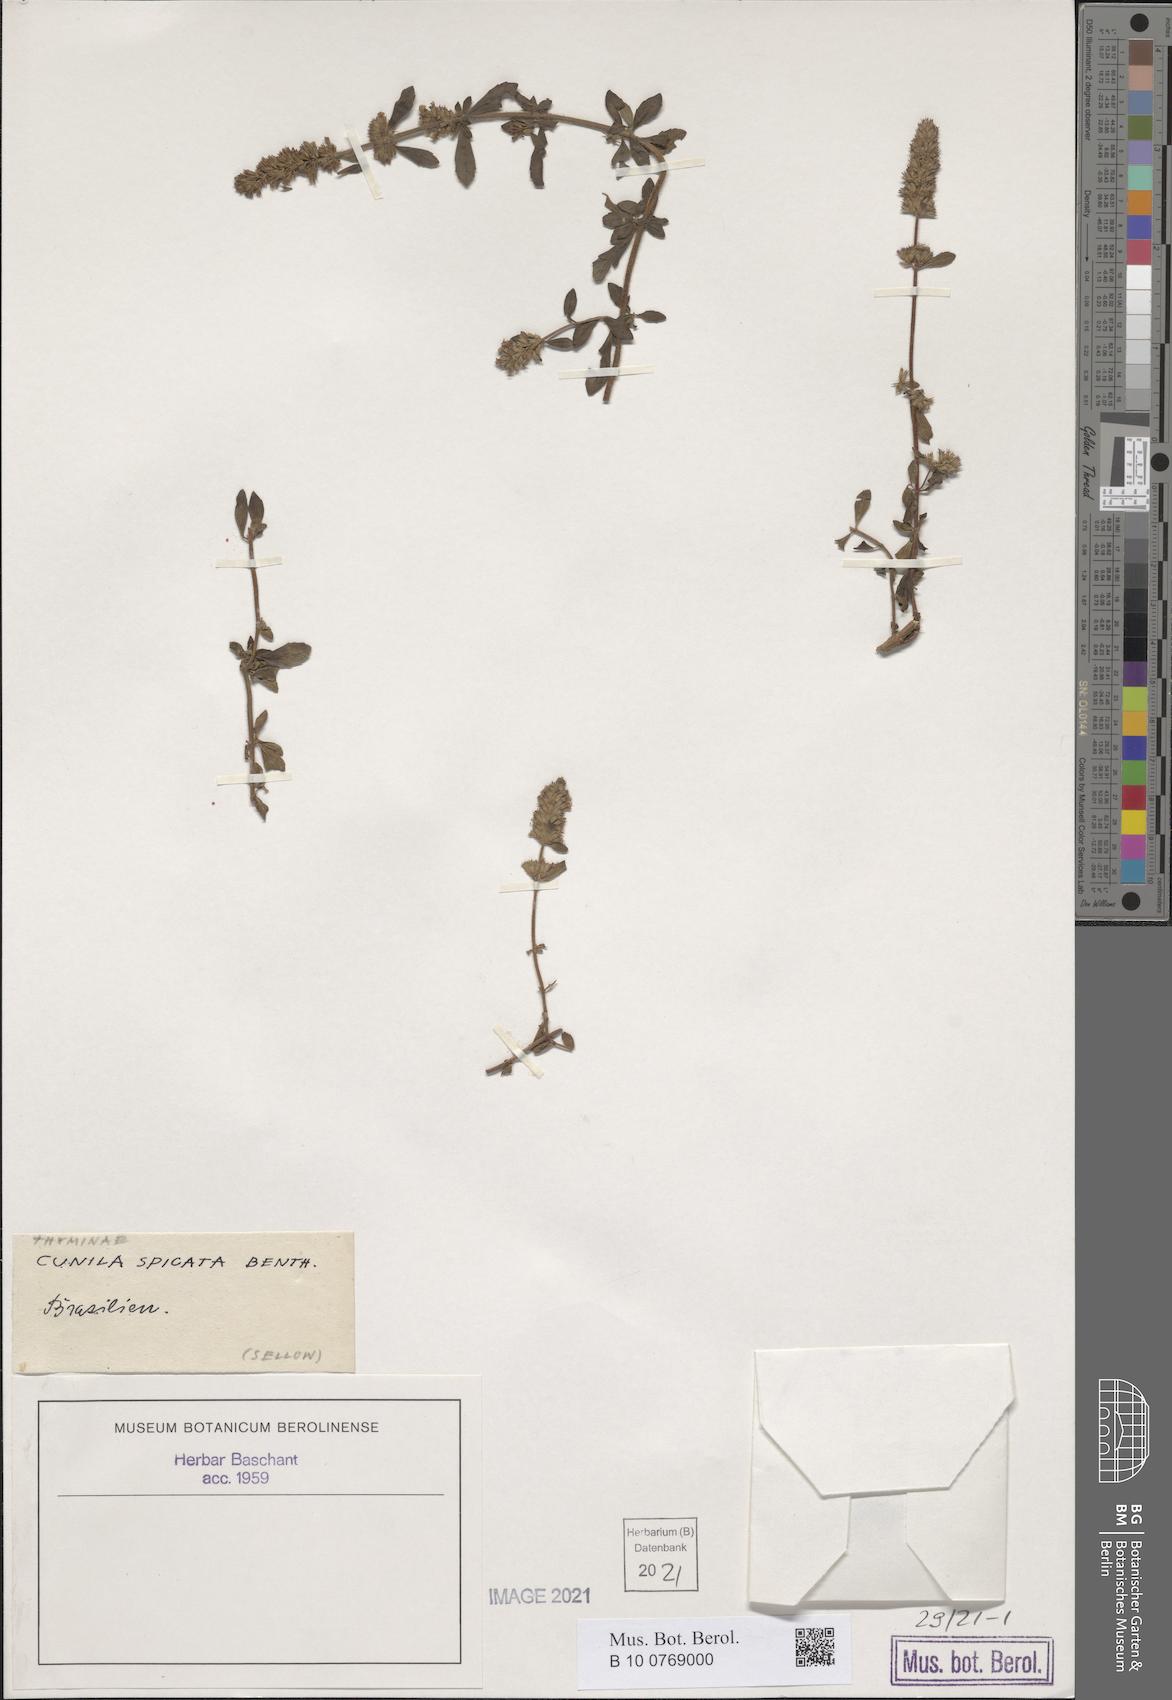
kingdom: Plantae
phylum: Tracheophyta
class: Magnoliopsida
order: Lamiales
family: Lamiaceae
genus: Cunila
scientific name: Cunila spicata
